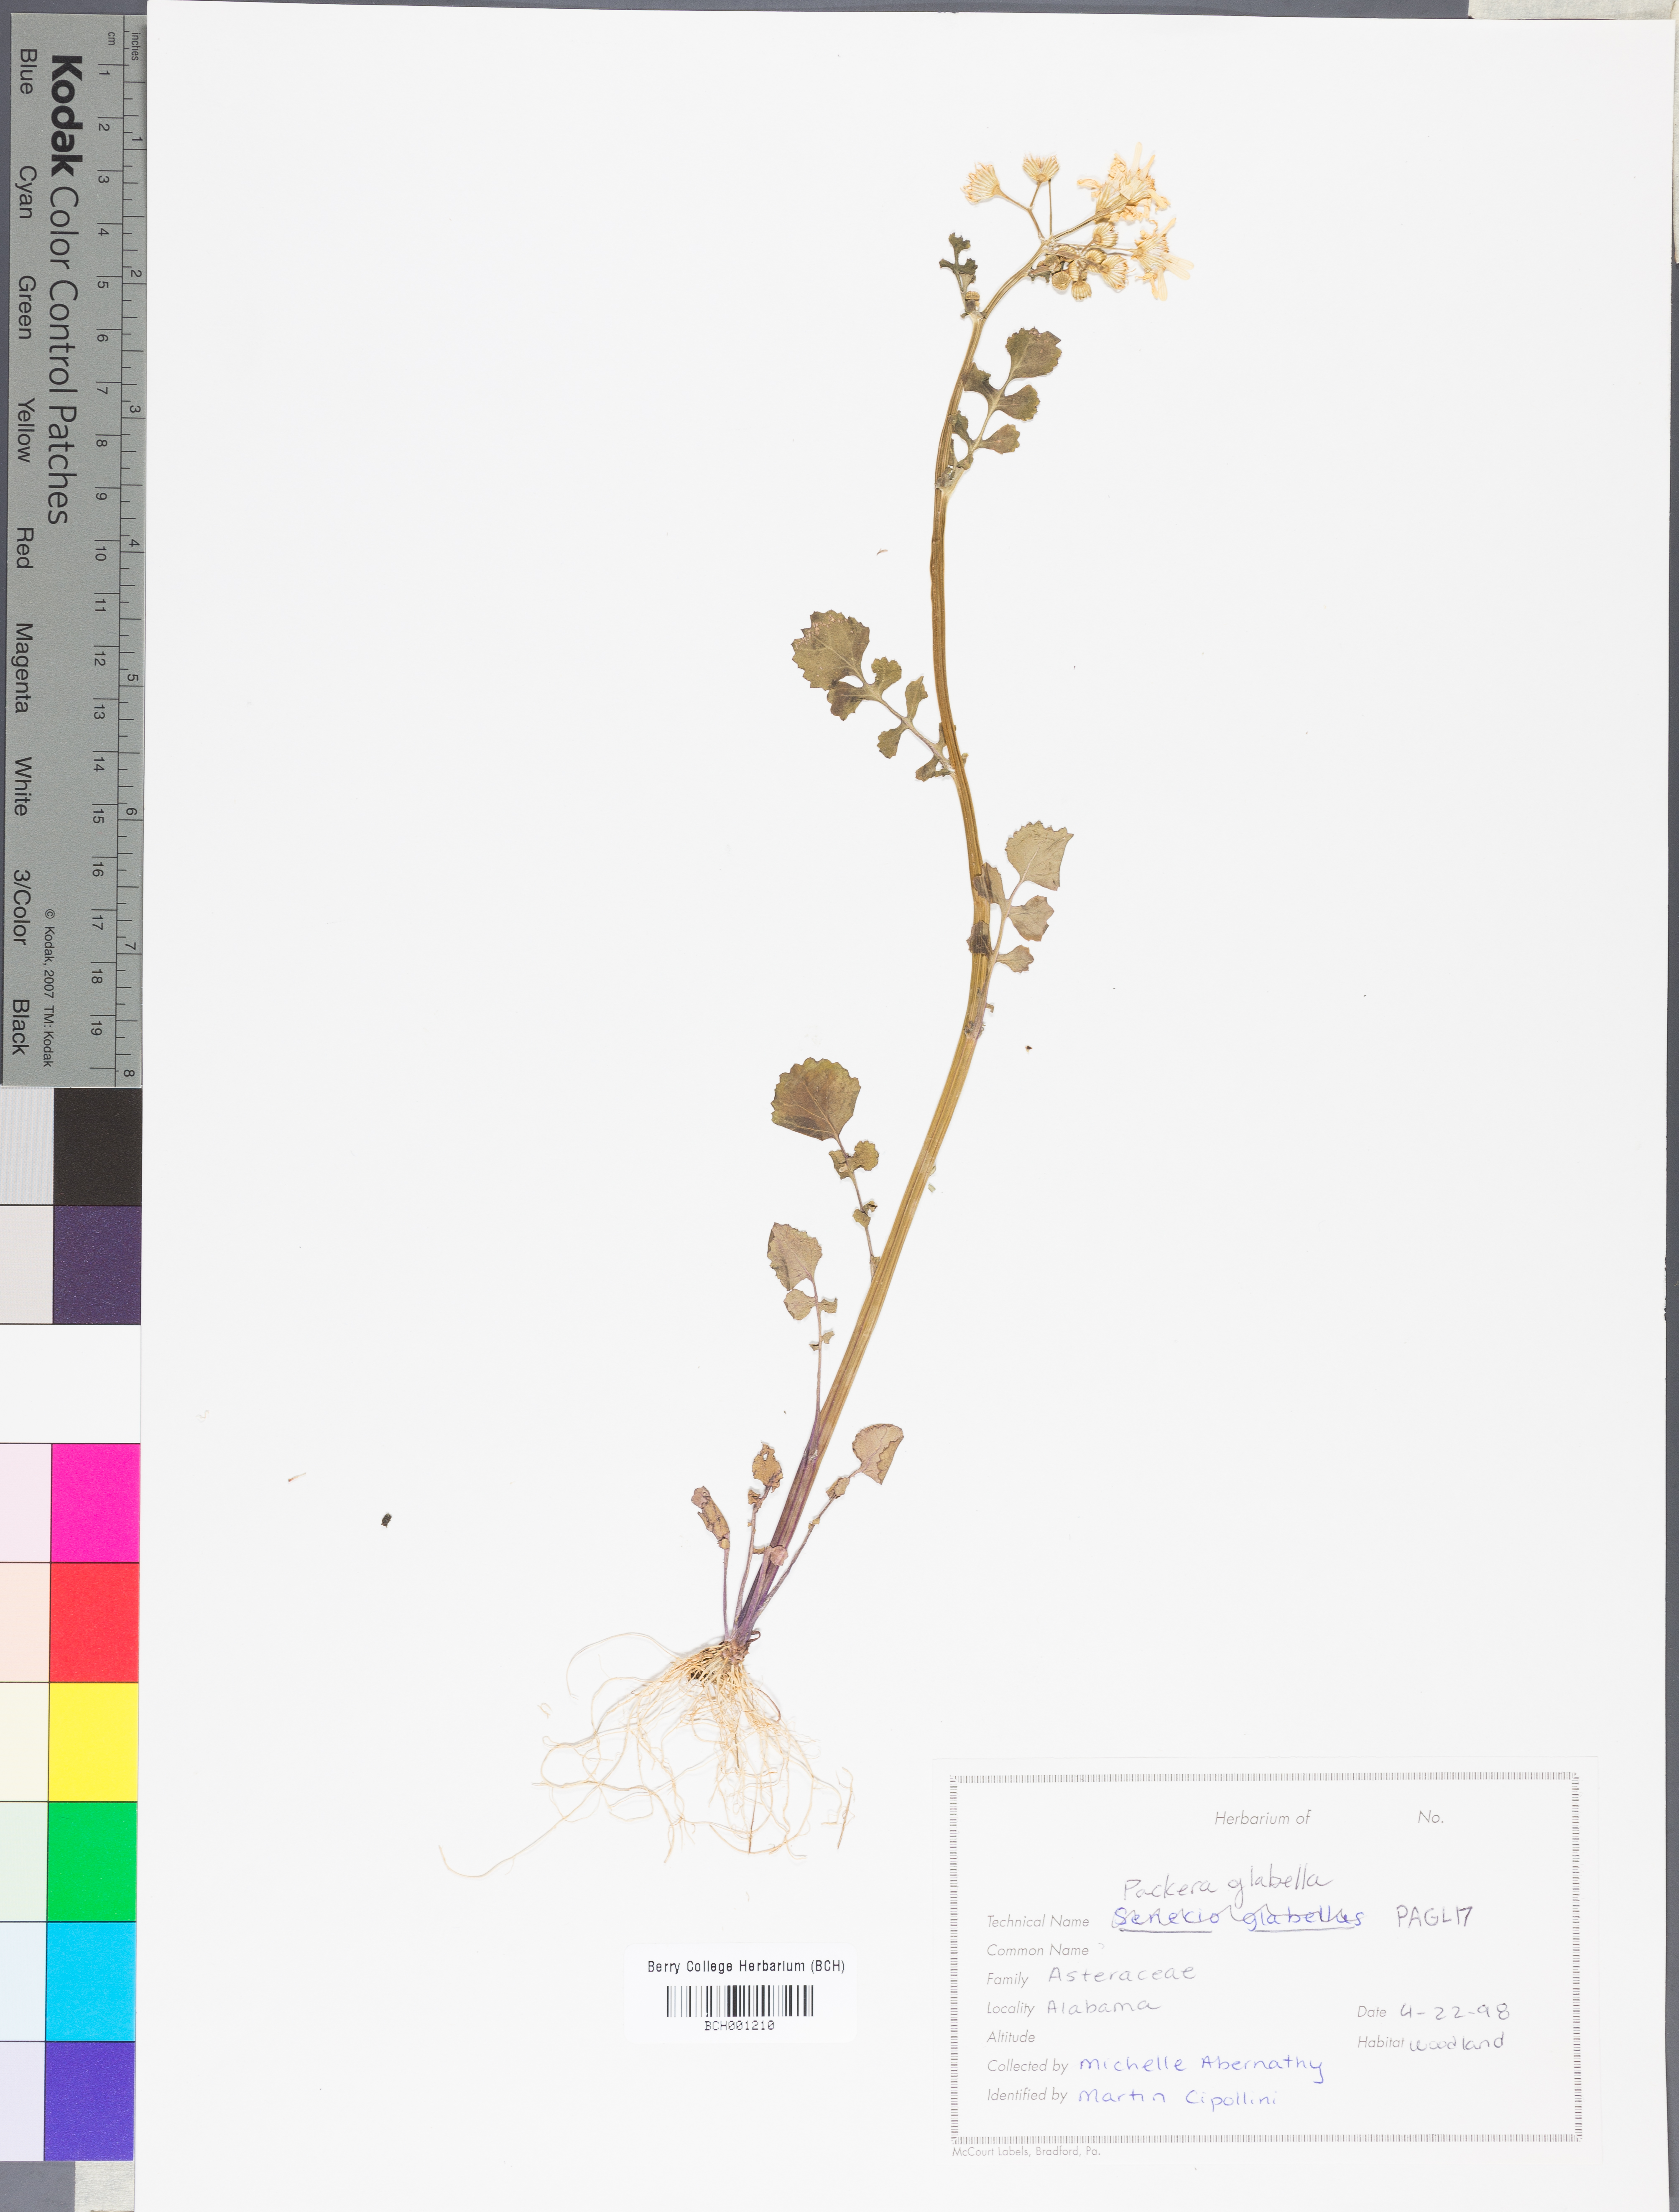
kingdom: Plantae
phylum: Tracheophyta
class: Magnoliopsida
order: Asterales
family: Asteraceae
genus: Packera
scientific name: Packera glabella
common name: Butterweed
